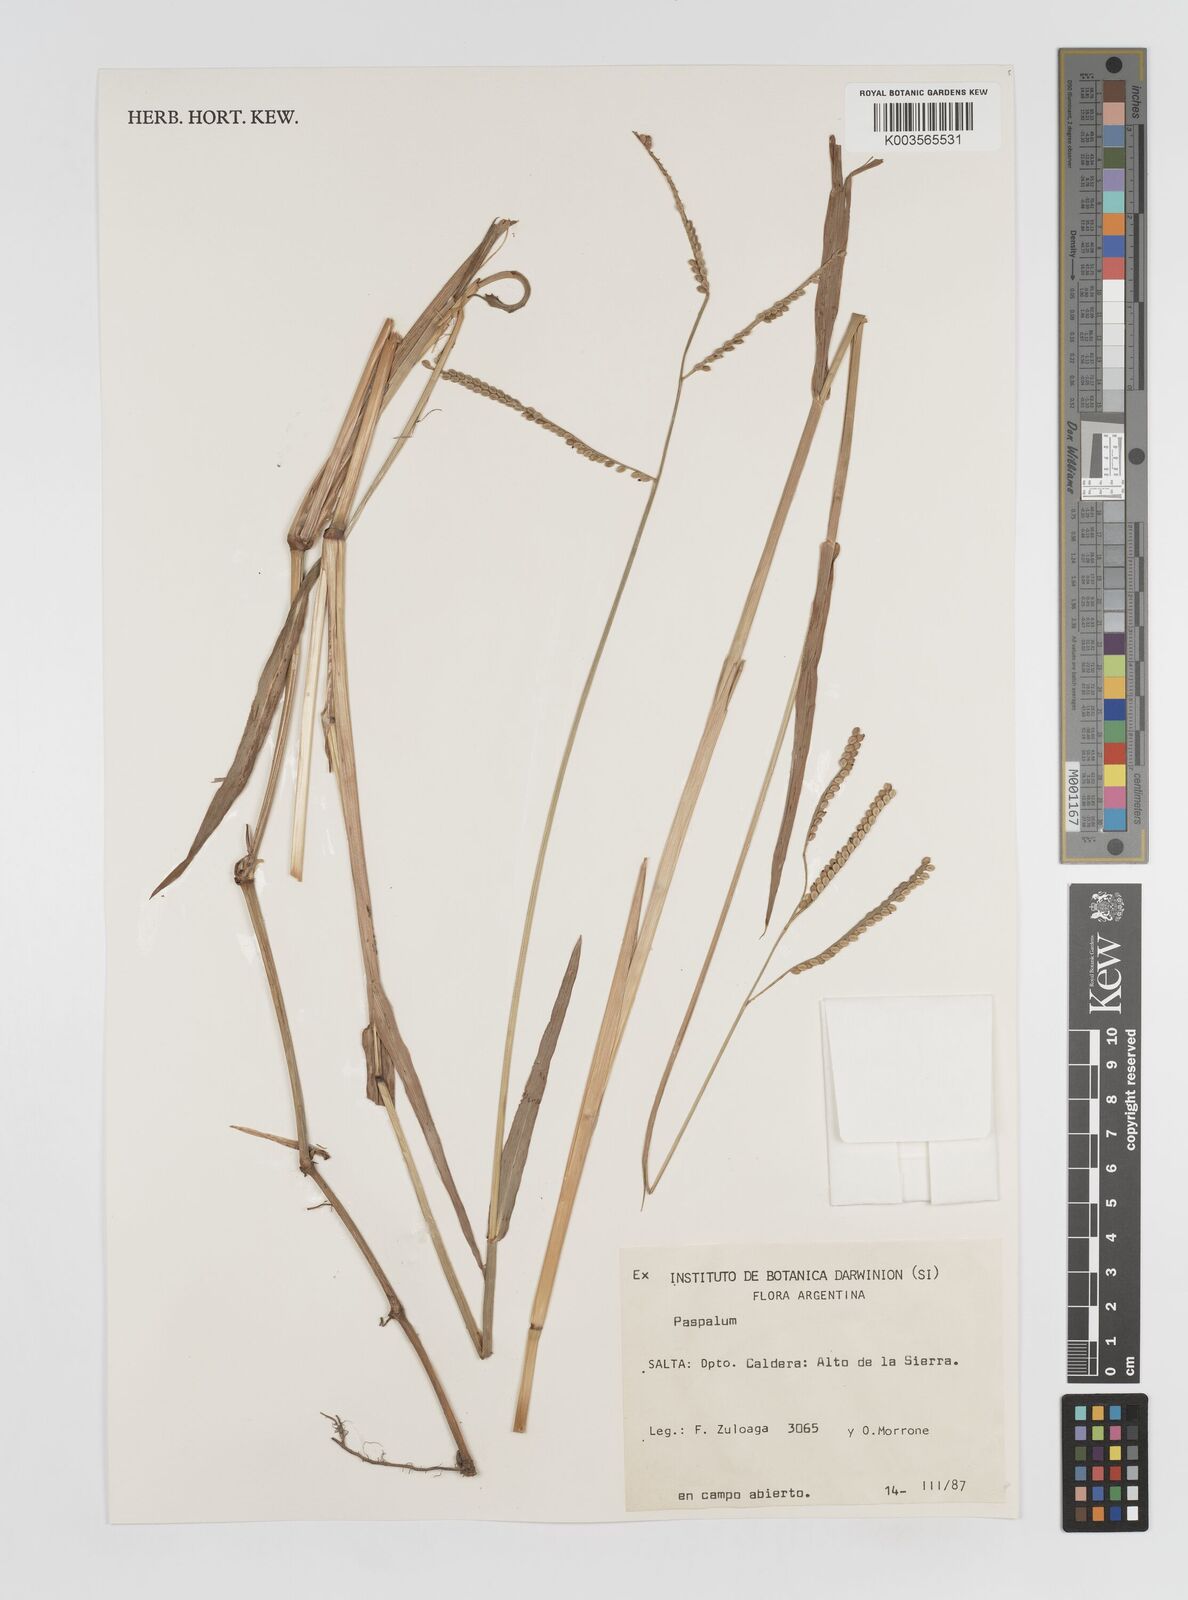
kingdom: Plantae
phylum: Tracheophyta
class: Liliopsida
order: Poales
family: Poaceae
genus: Paspalum
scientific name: Paspalum
